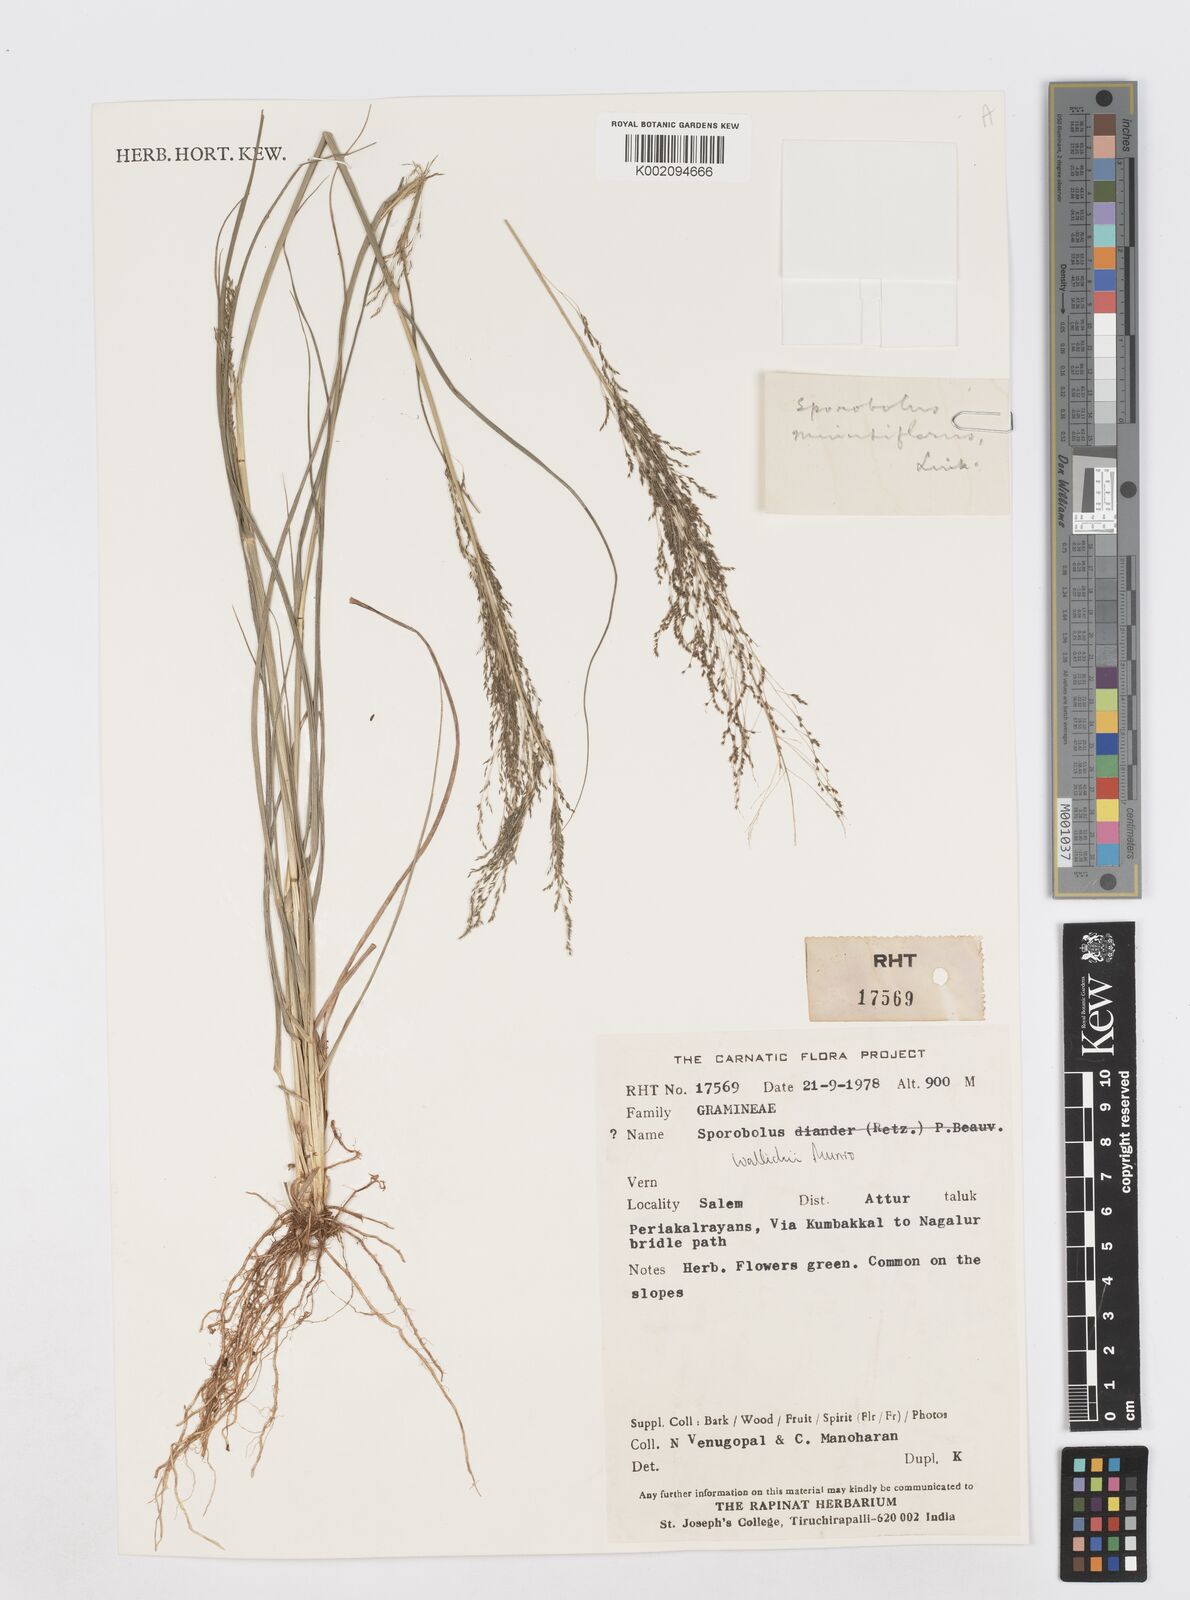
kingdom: Plantae
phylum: Tracheophyta
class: Liliopsida
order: Poales
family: Poaceae
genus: Sporobolus
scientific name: Sporobolus wallichii
